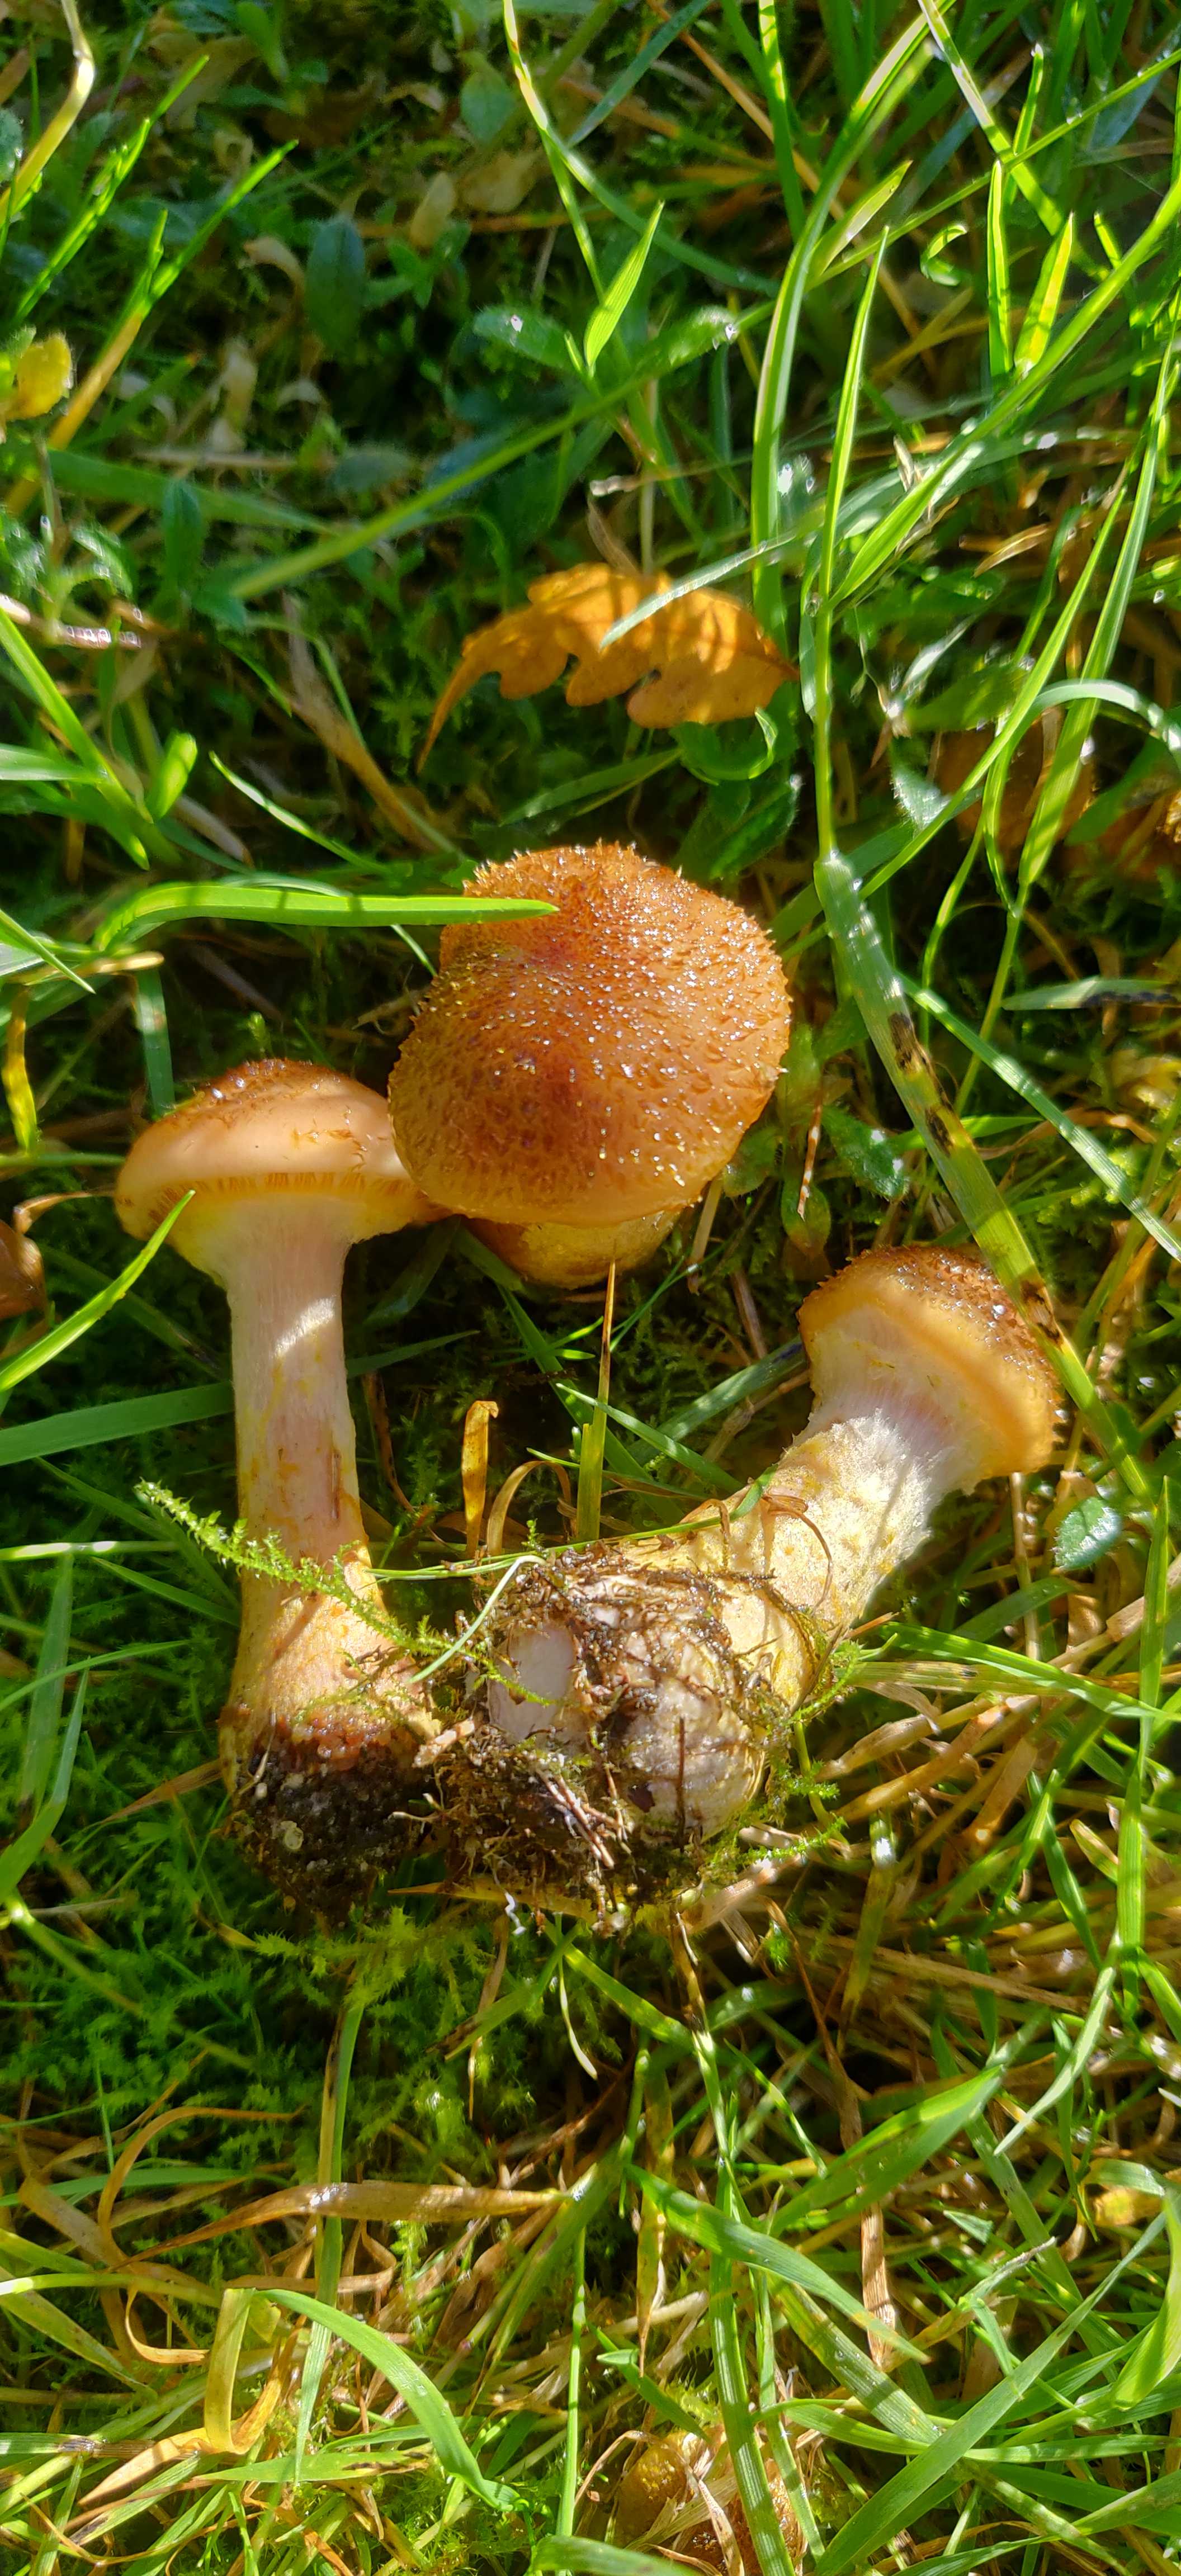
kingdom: Fungi
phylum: Basidiomycota
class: Agaricomycetes
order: Agaricales
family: Physalacriaceae
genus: Armillaria
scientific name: Armillaria lutea
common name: køllestokket honningsvamp
